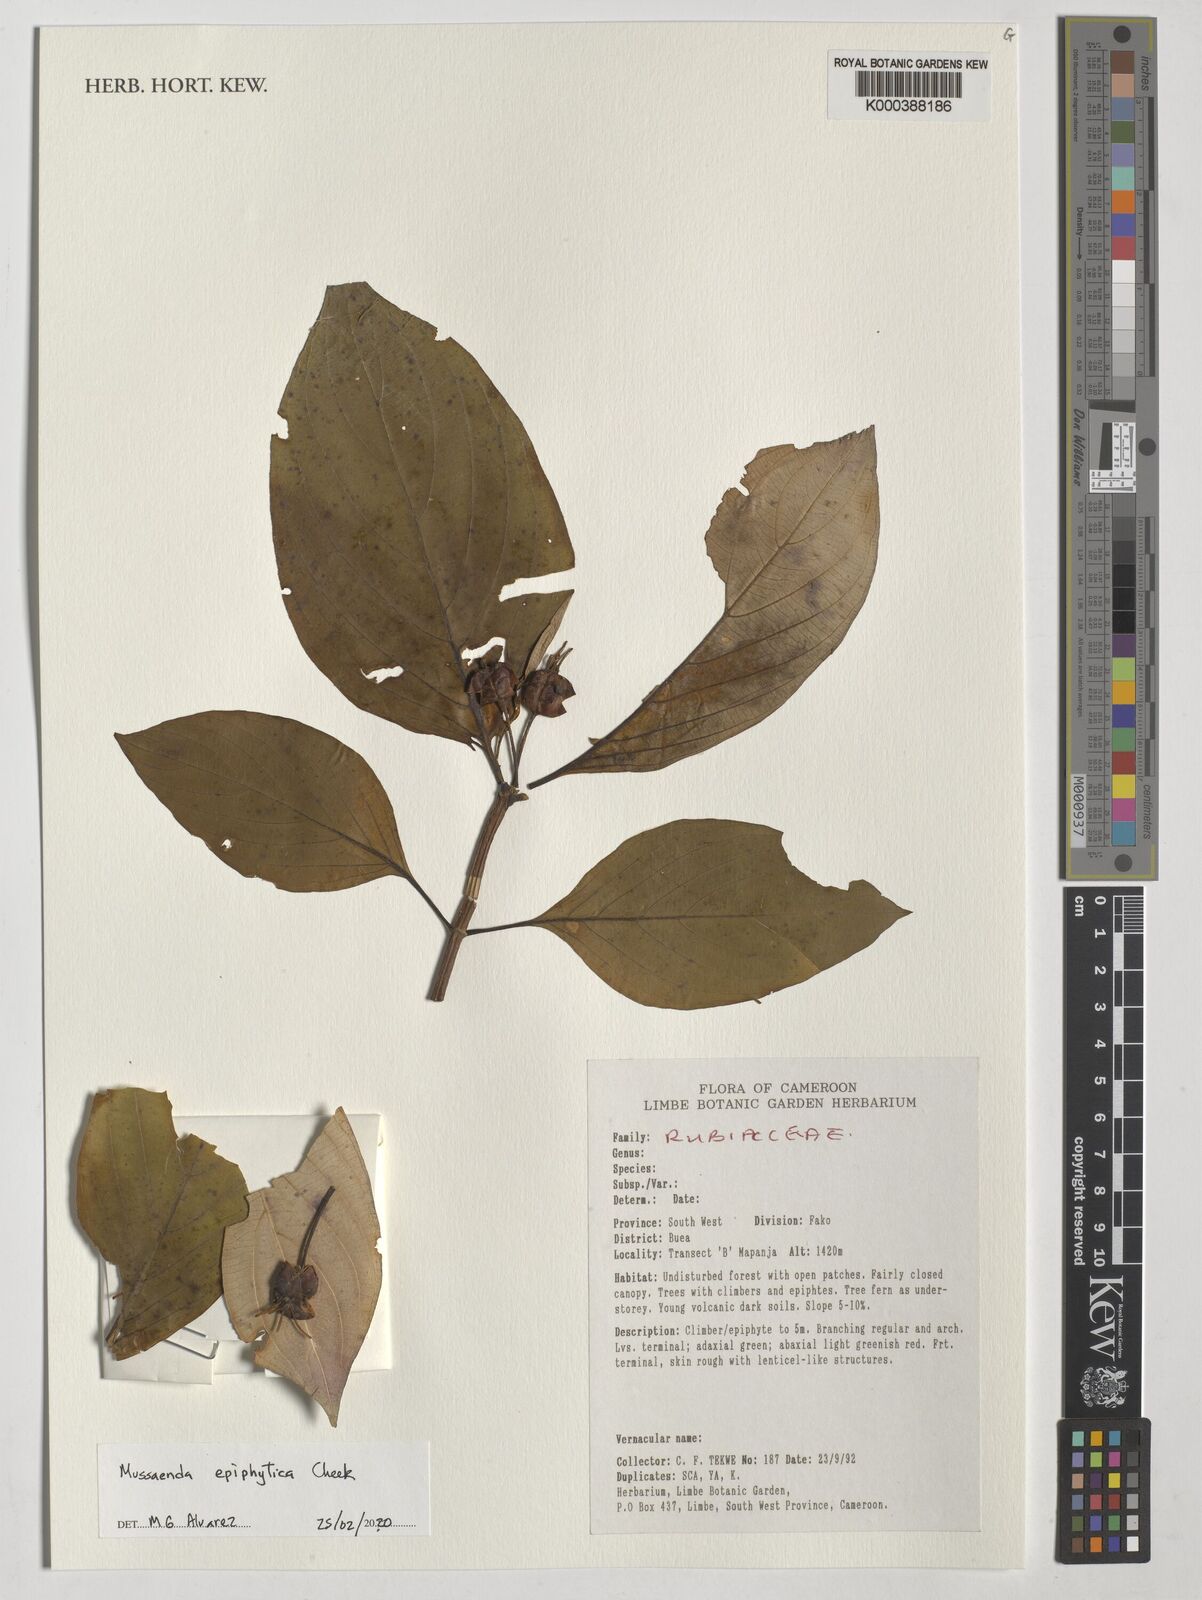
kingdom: Plantae
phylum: Tracheophyta
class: Magnoliopsida
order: Gentianales
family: Rubiaceae
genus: Mussaenda
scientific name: Mussaenda epiphytica
